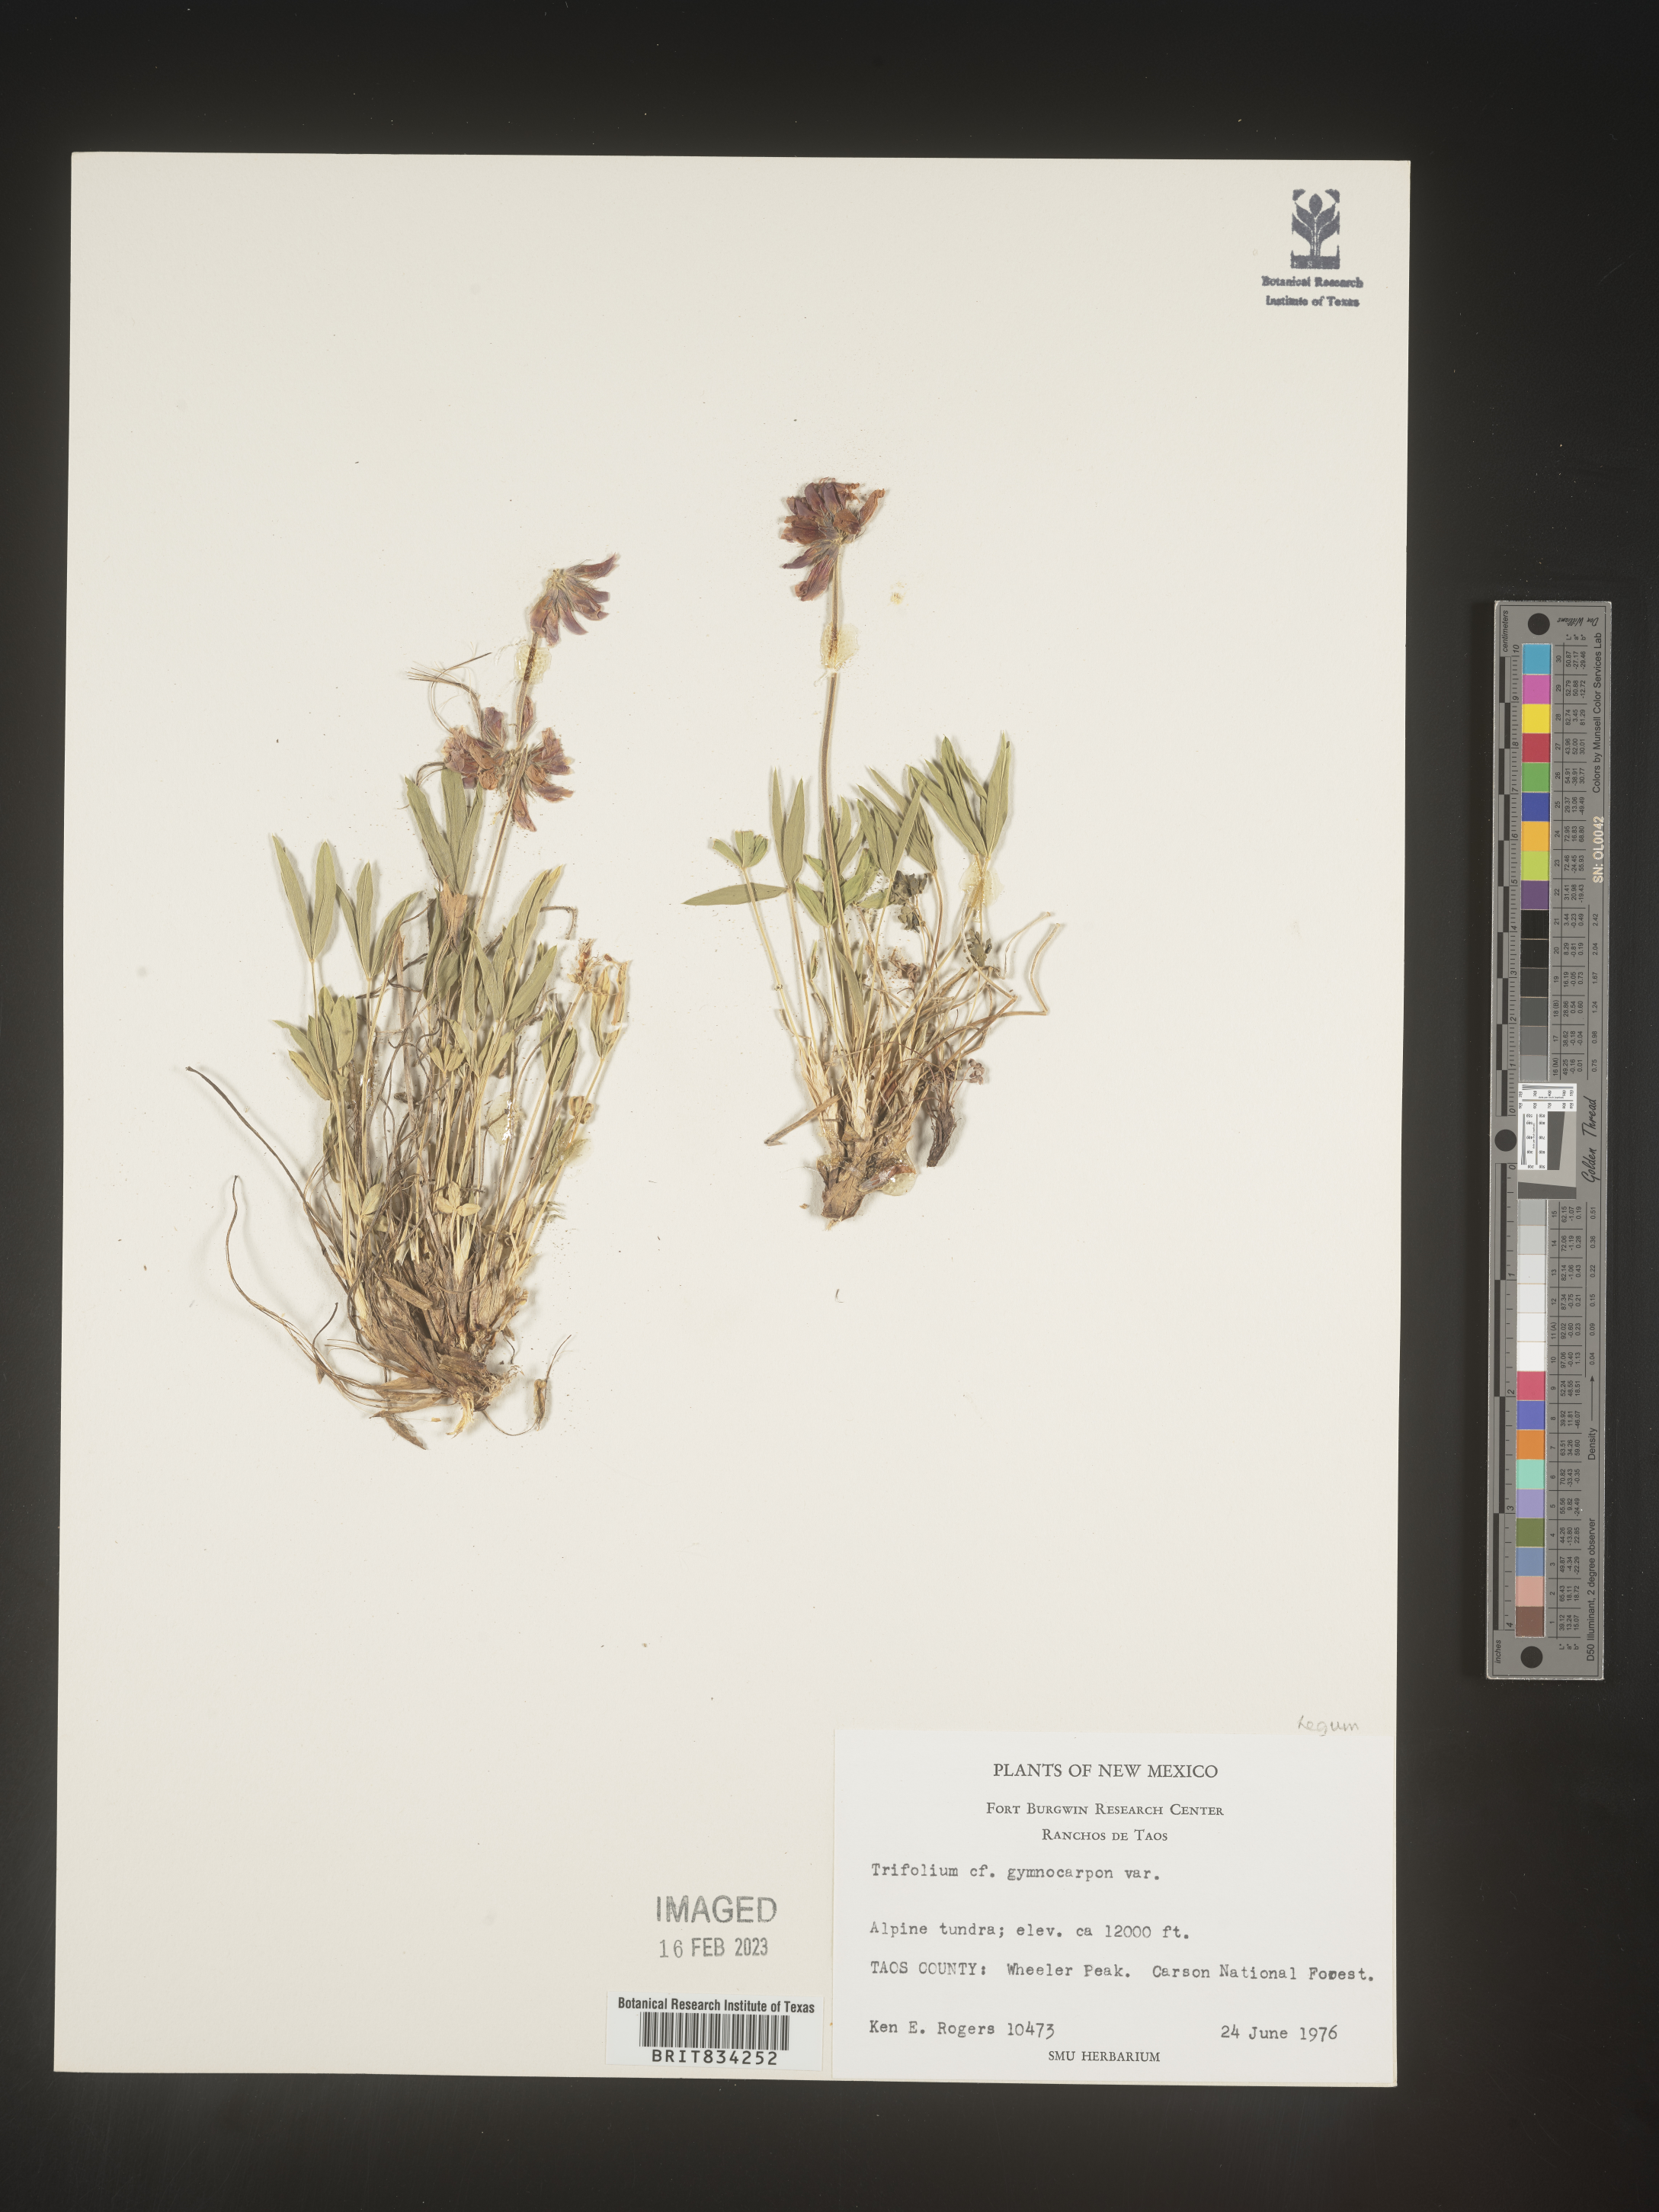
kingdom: Plantae
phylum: Tracheophyta
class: Magnoliopsida
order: Fabales
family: Fabaceae
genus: Trifolium
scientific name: Trifolium
